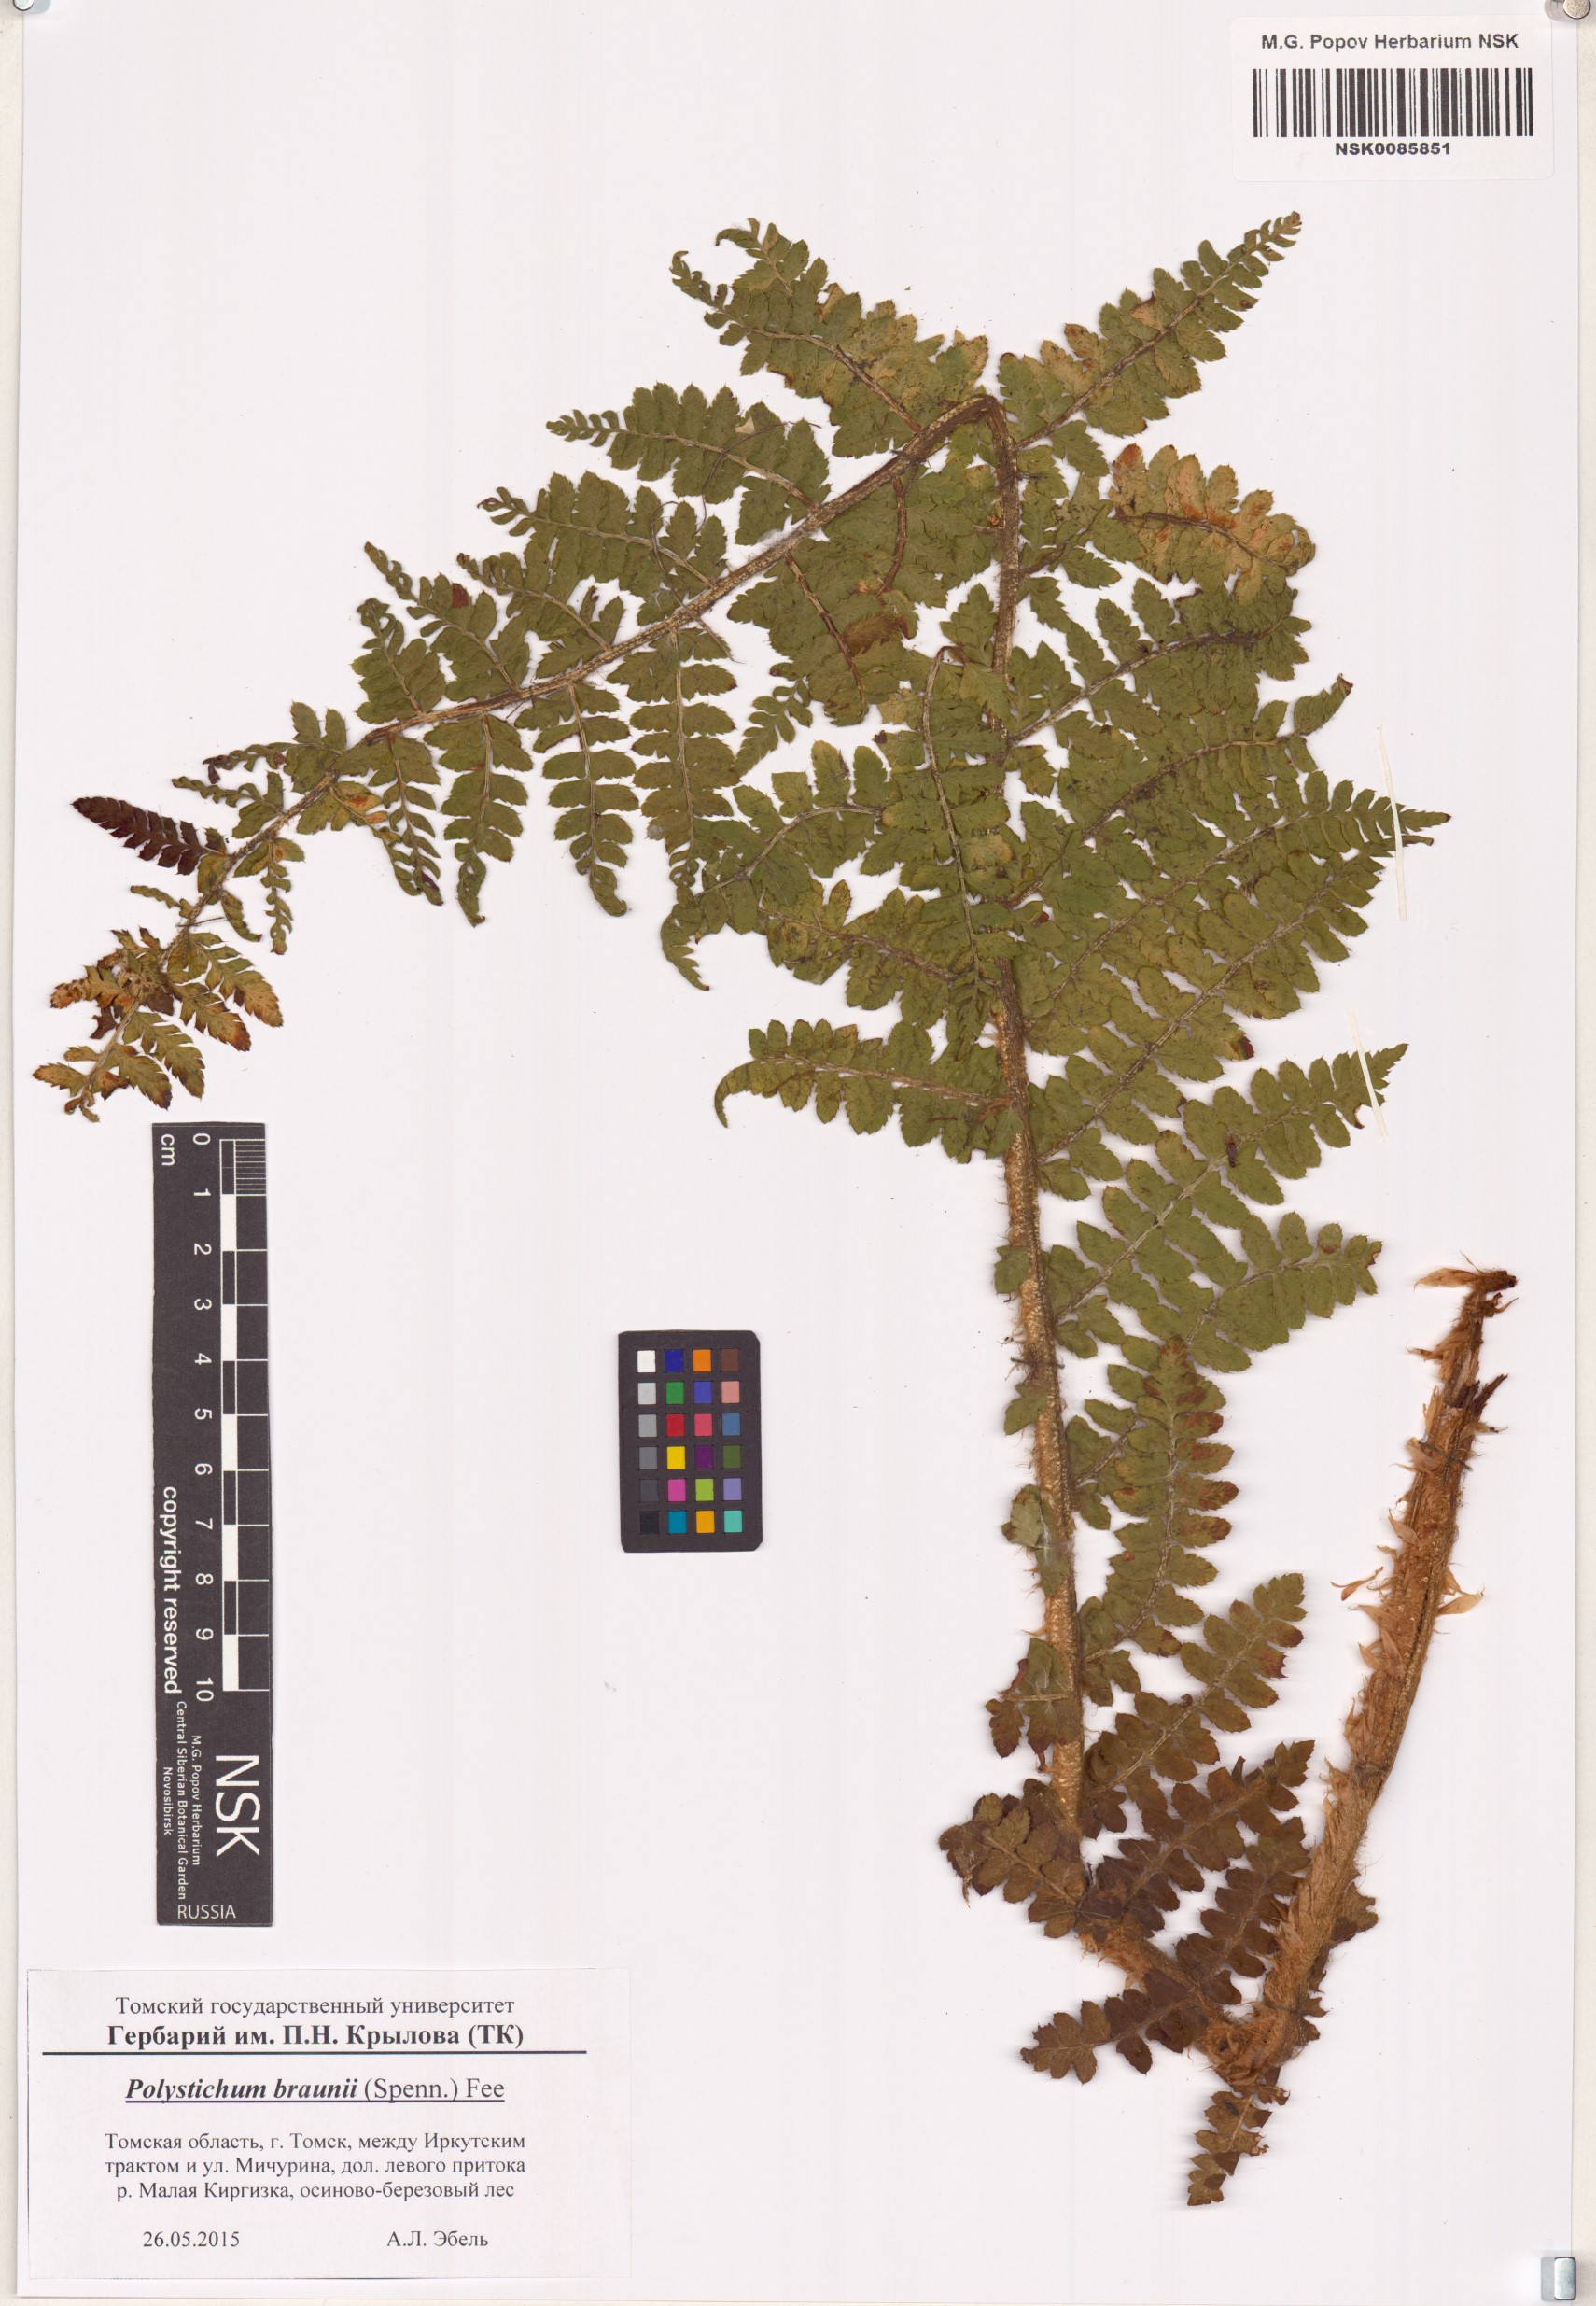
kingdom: Plantae
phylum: Tracheophyta
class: Polypodiopsida
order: Polypodiales
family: Dryopteridaceae
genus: Polystichum
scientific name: Polystichum braunii
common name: Braun's holly fern
